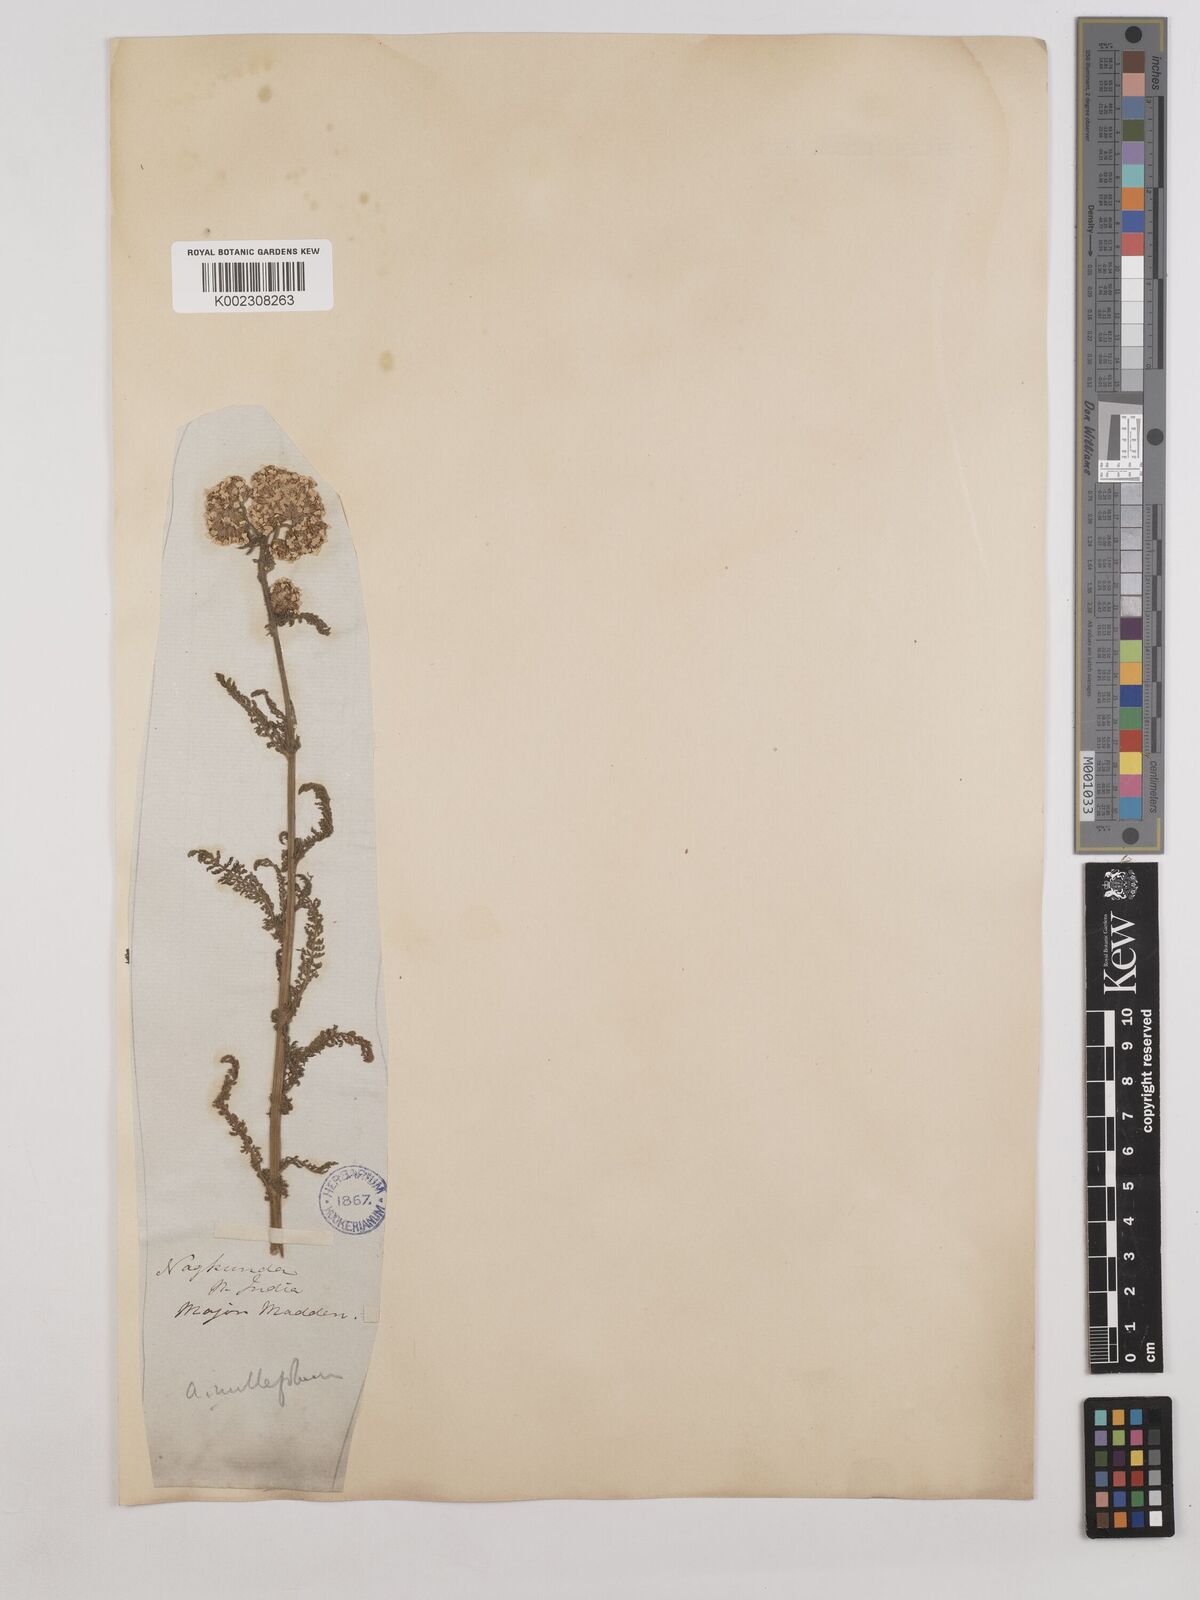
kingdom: Plantae
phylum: Tracheophyta
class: Magnoliopsida
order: Asterales
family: Asteraceae
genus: Achillea
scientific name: Achillea millefolium
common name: Yarrow
